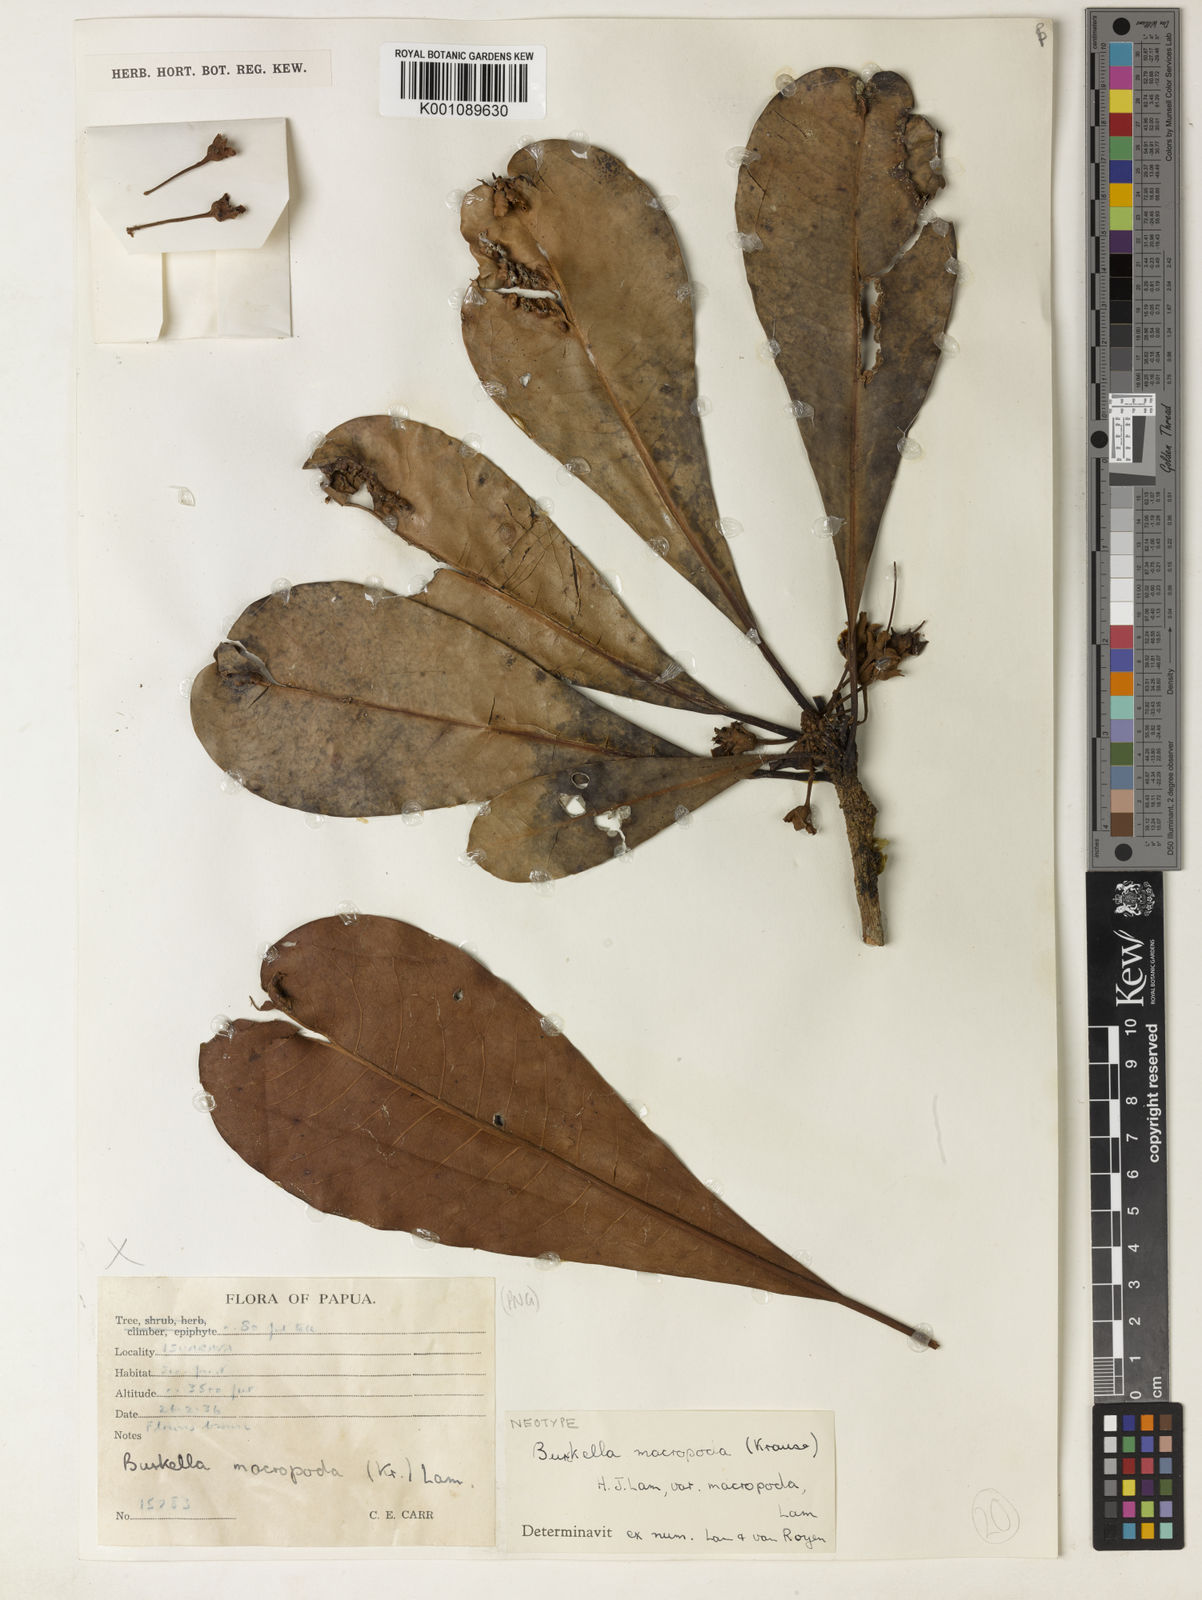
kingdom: Plantae
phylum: Tracheophyta
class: Magnoliopsida
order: Ericales
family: Sapotaceae
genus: Burckella
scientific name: Burckella macropoda
